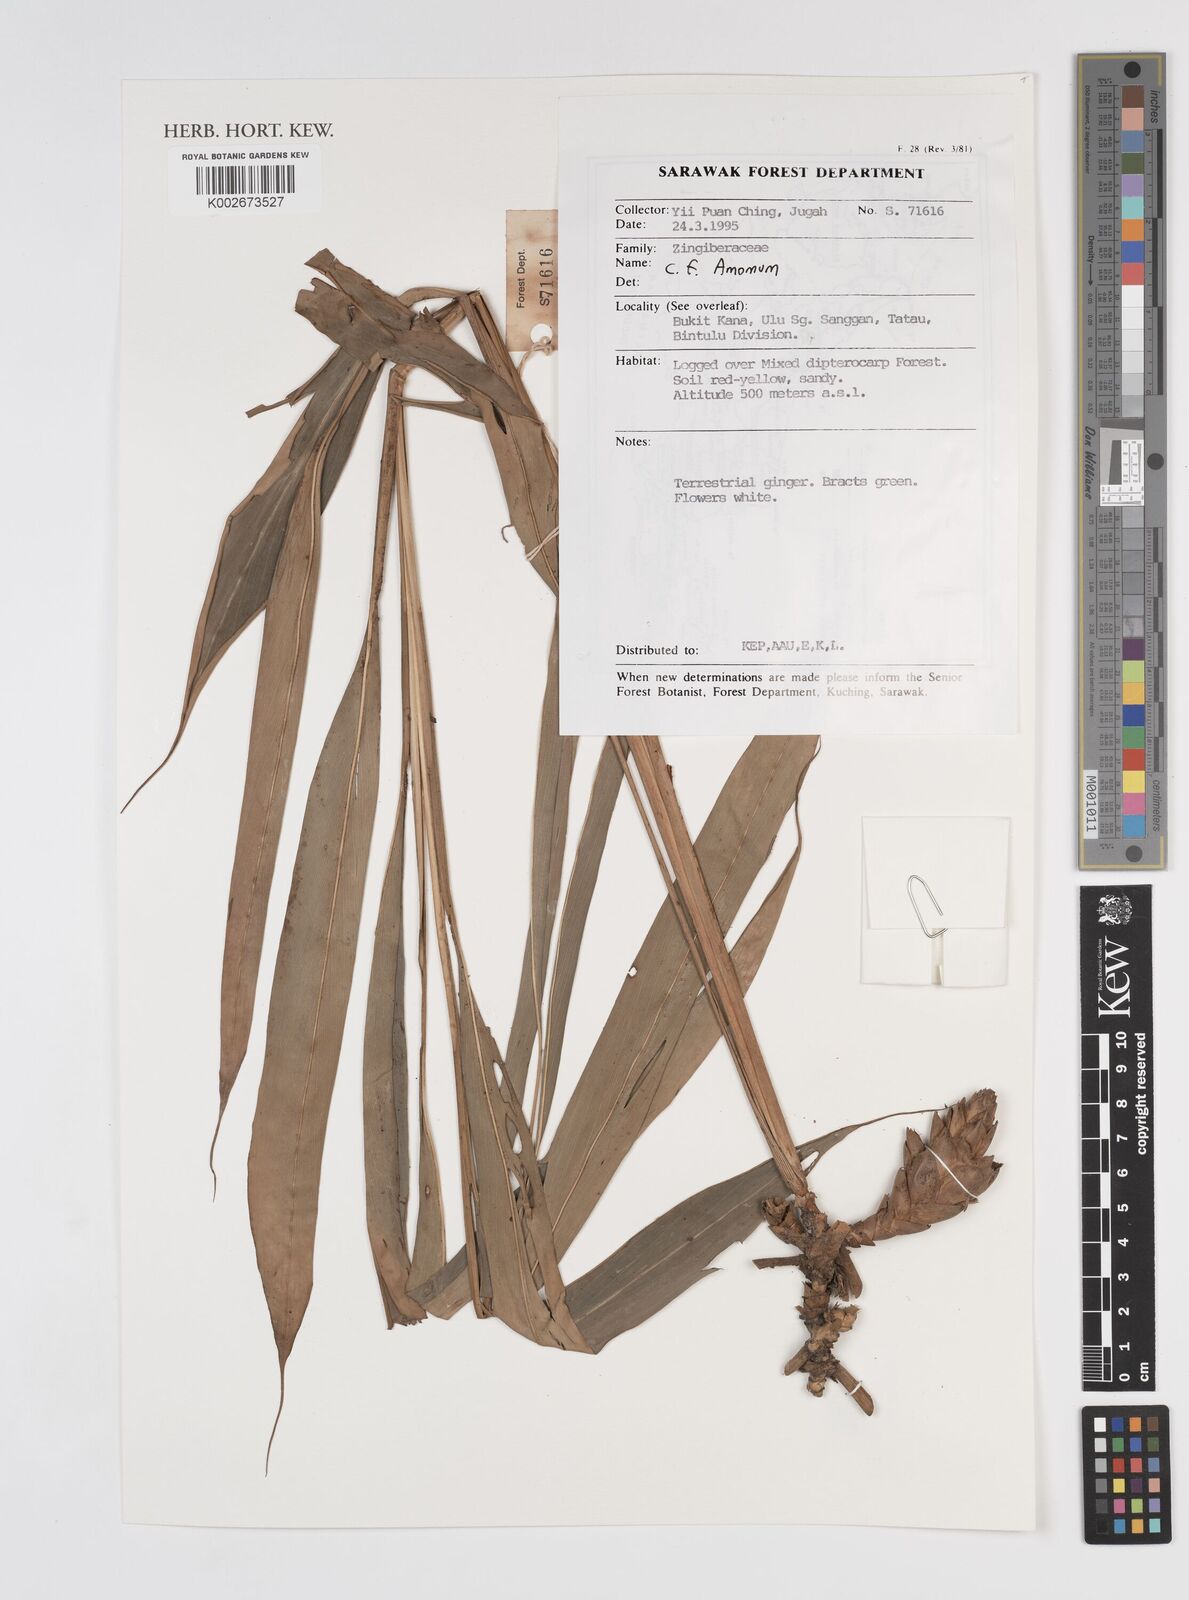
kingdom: Plantae
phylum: Tracheophyta
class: Liliopsida
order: Zingiberales
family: Zingiberaceae
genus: Amomum
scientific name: Amomum
